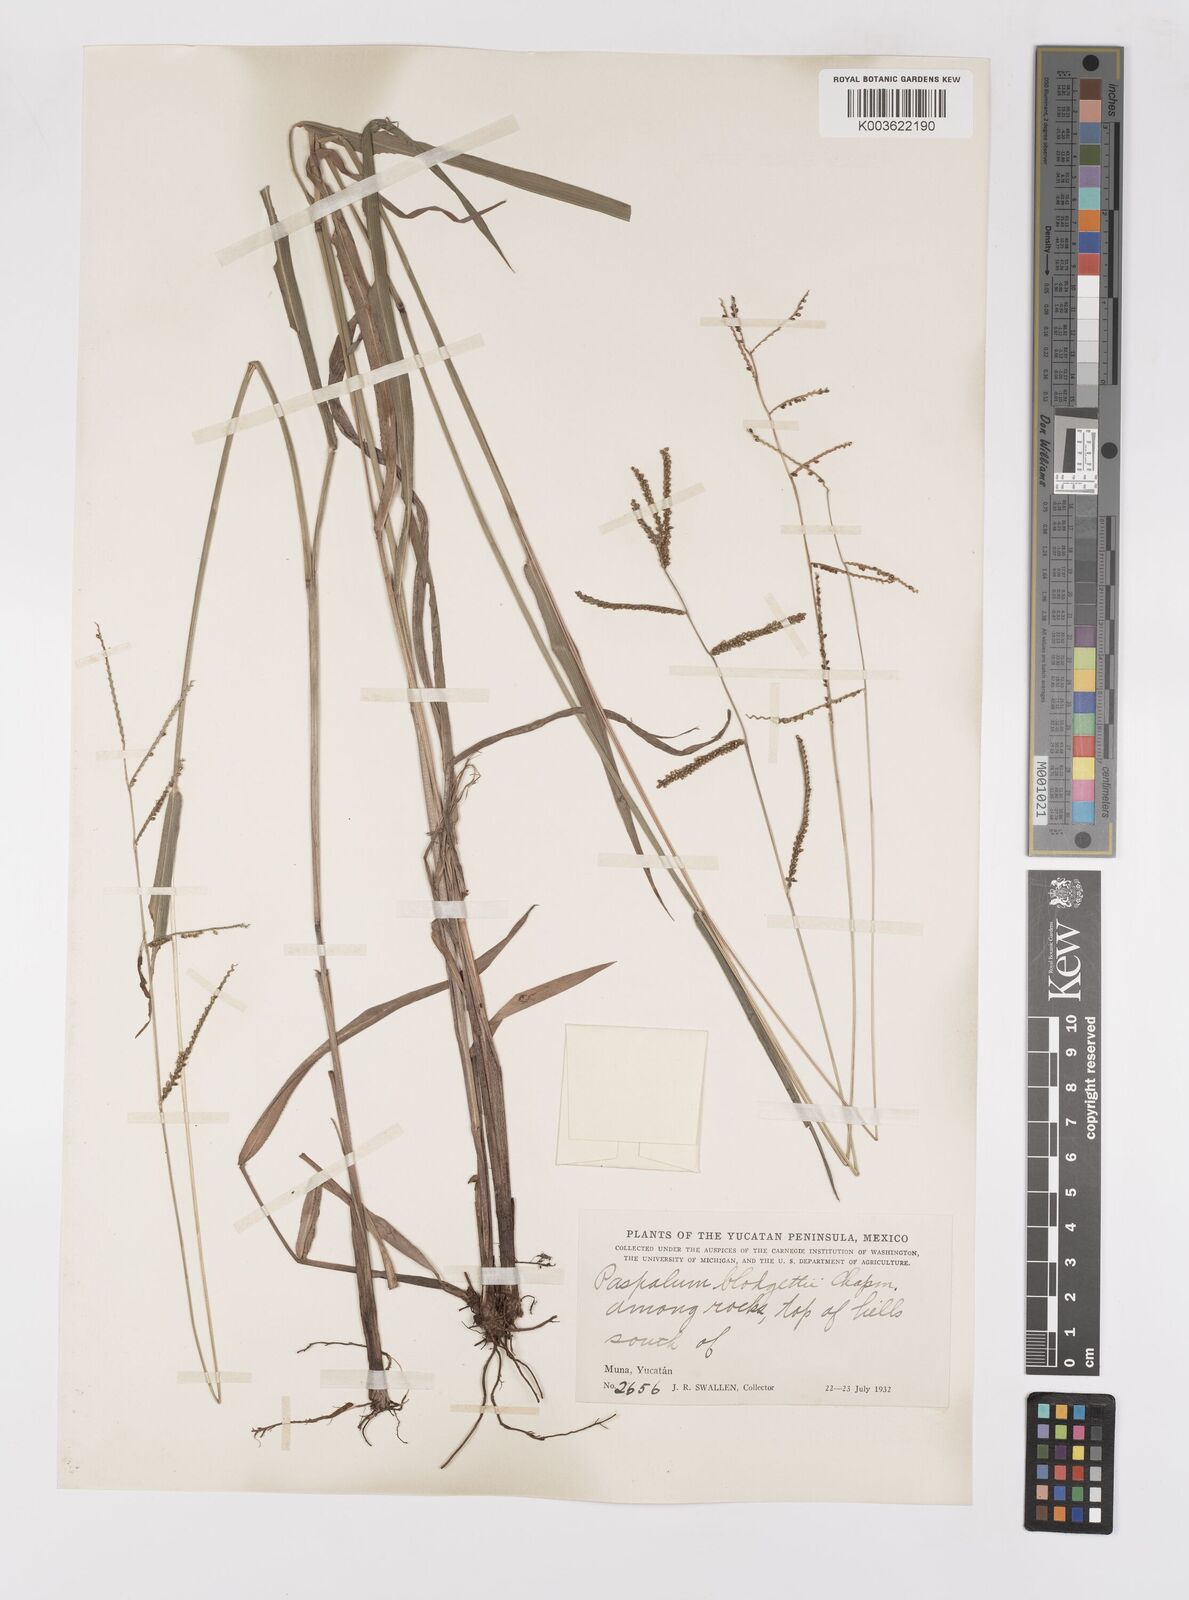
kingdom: Plantae
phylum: Tracheophyta
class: Liliopsida
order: Poales
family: Poaceae
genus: Paspalum
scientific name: Paspalum blodgettii
